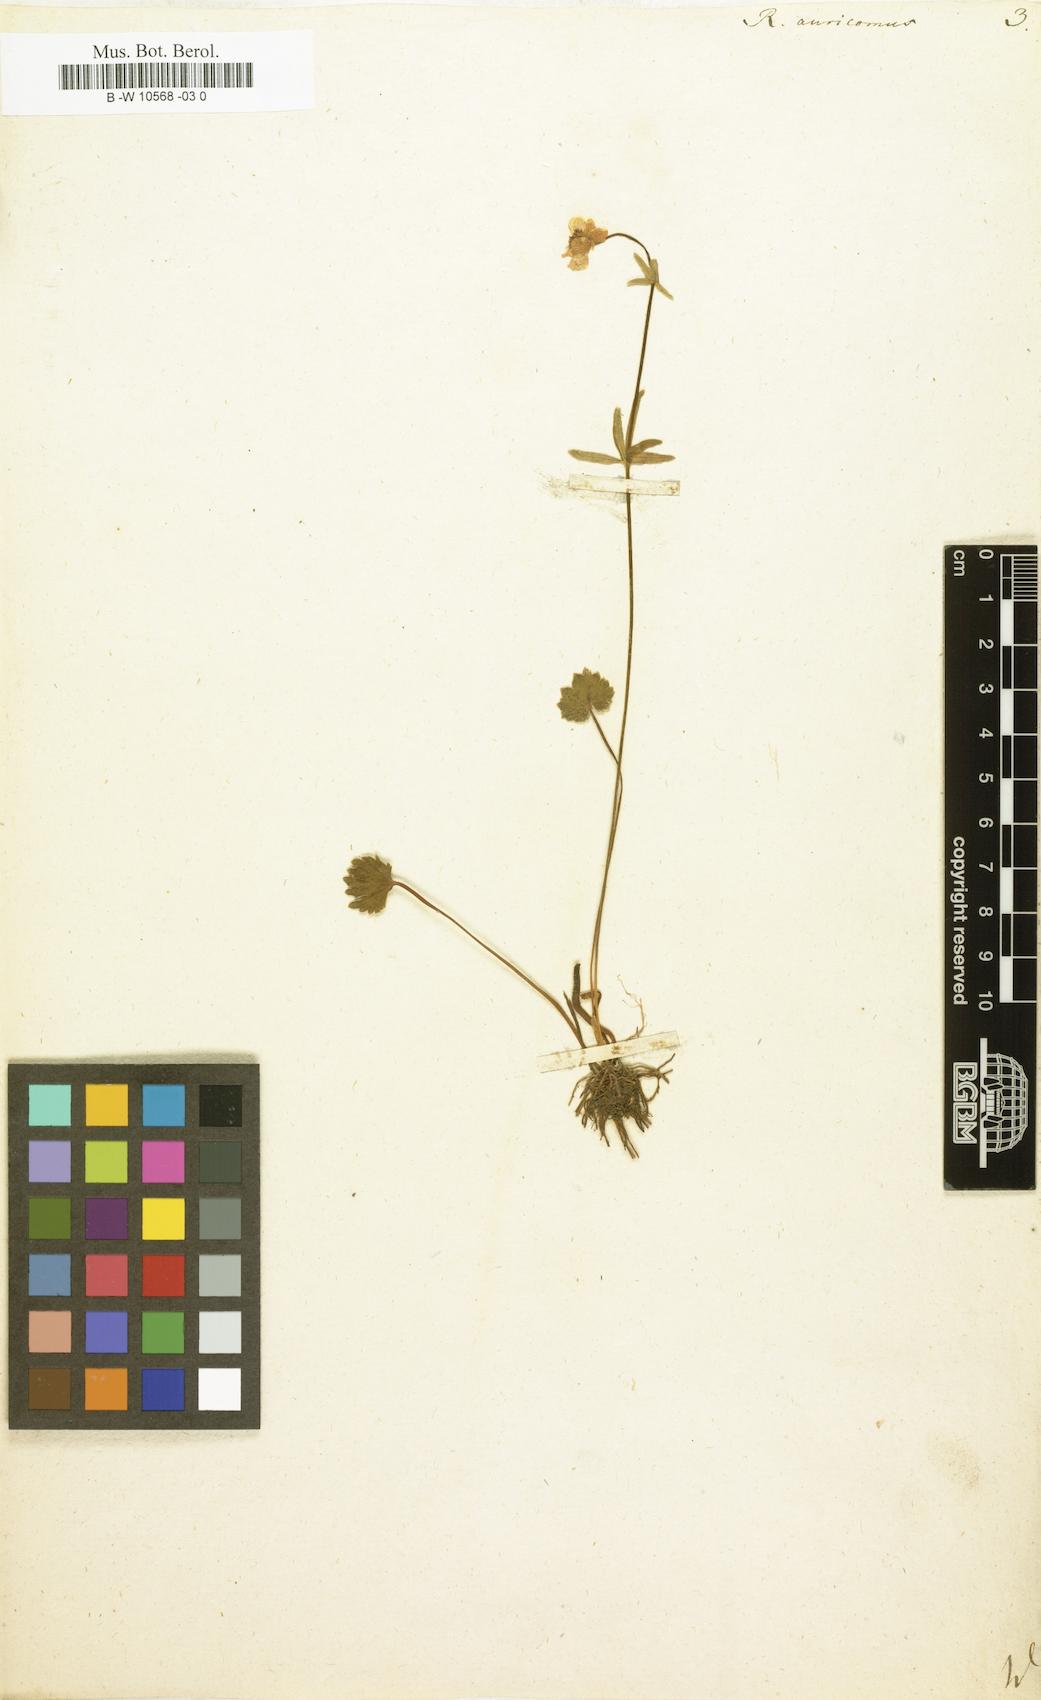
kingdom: Plantae
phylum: Tracheophyta
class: Magnoliopsida
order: Ranunculales
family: Ranunculaceae
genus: Ranunculus
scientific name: Ranunculus auricomus
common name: Goldilocks buttercup
